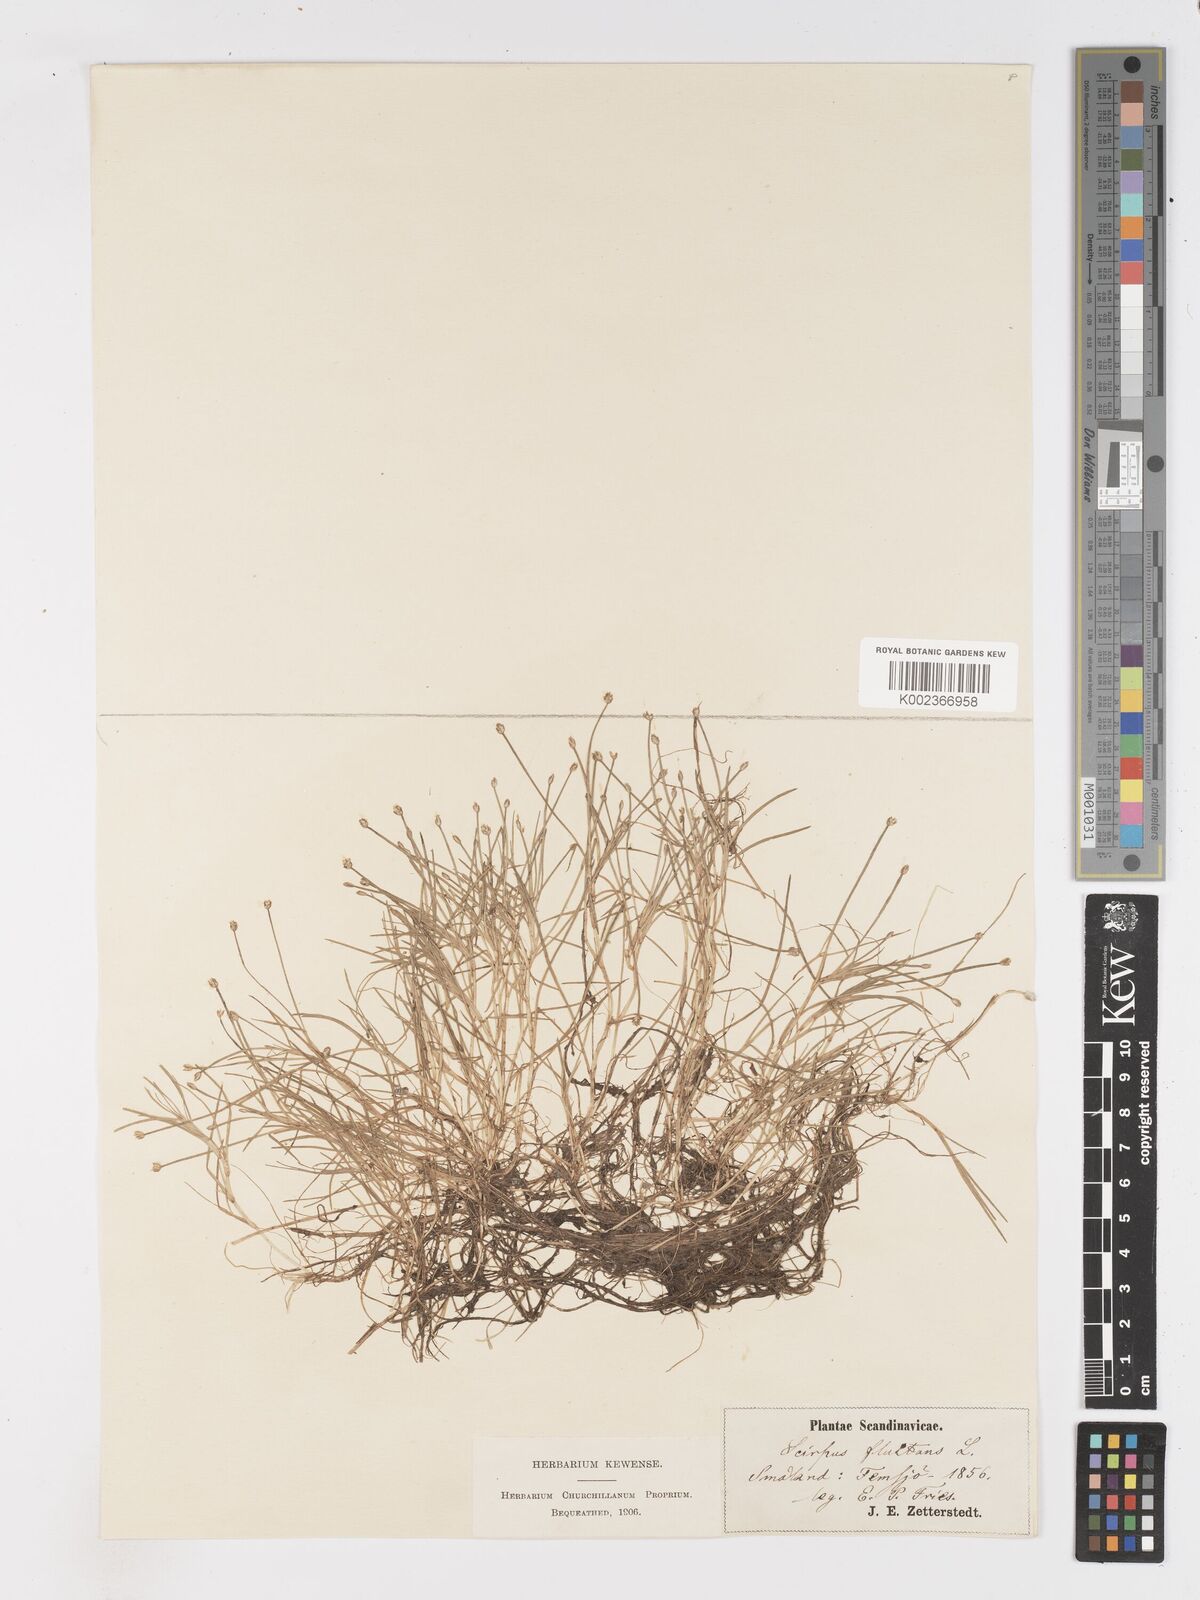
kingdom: Plantae
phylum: Tracheophyta
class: Liliopsida
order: Poales
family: Cyperaceae
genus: Isolepis
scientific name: Isolepis fluitans
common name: Floating club-rush
